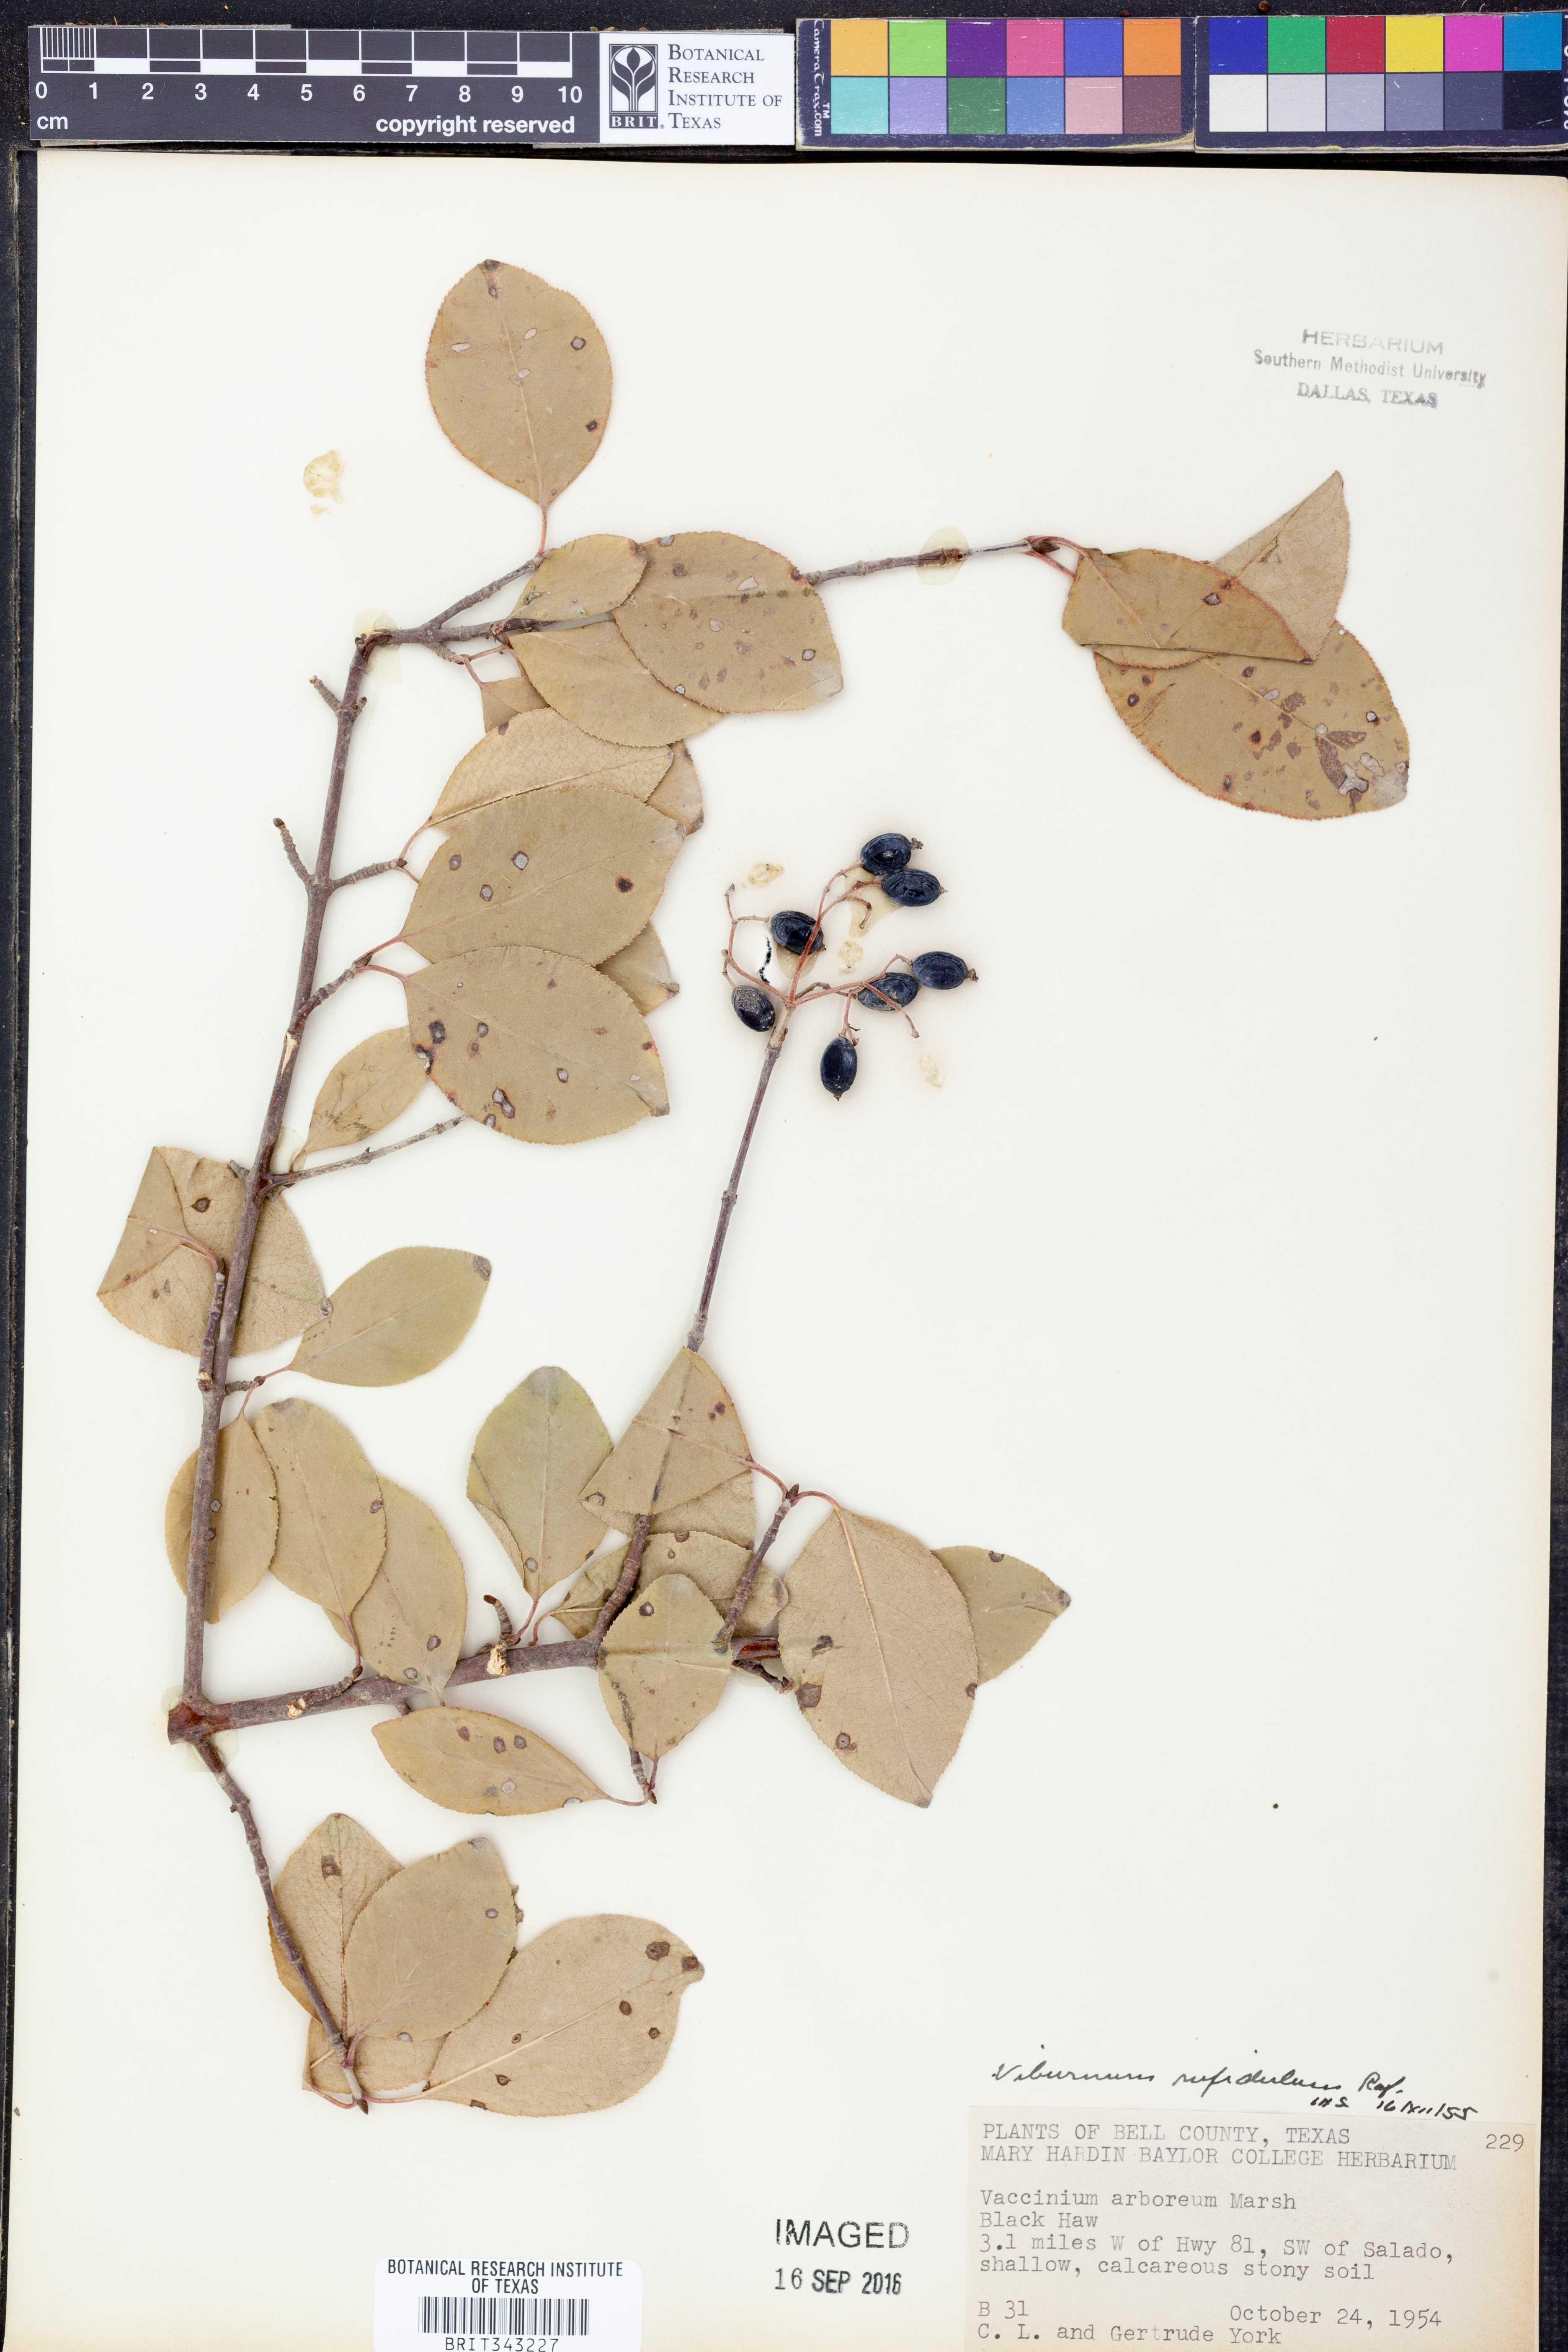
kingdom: Plantae
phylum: Tracheophyta
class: Magnoliopsida
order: Dipsacales
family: Viburnaceae
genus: Viburnum
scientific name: Viburnum rufidulum
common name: Blue haw
